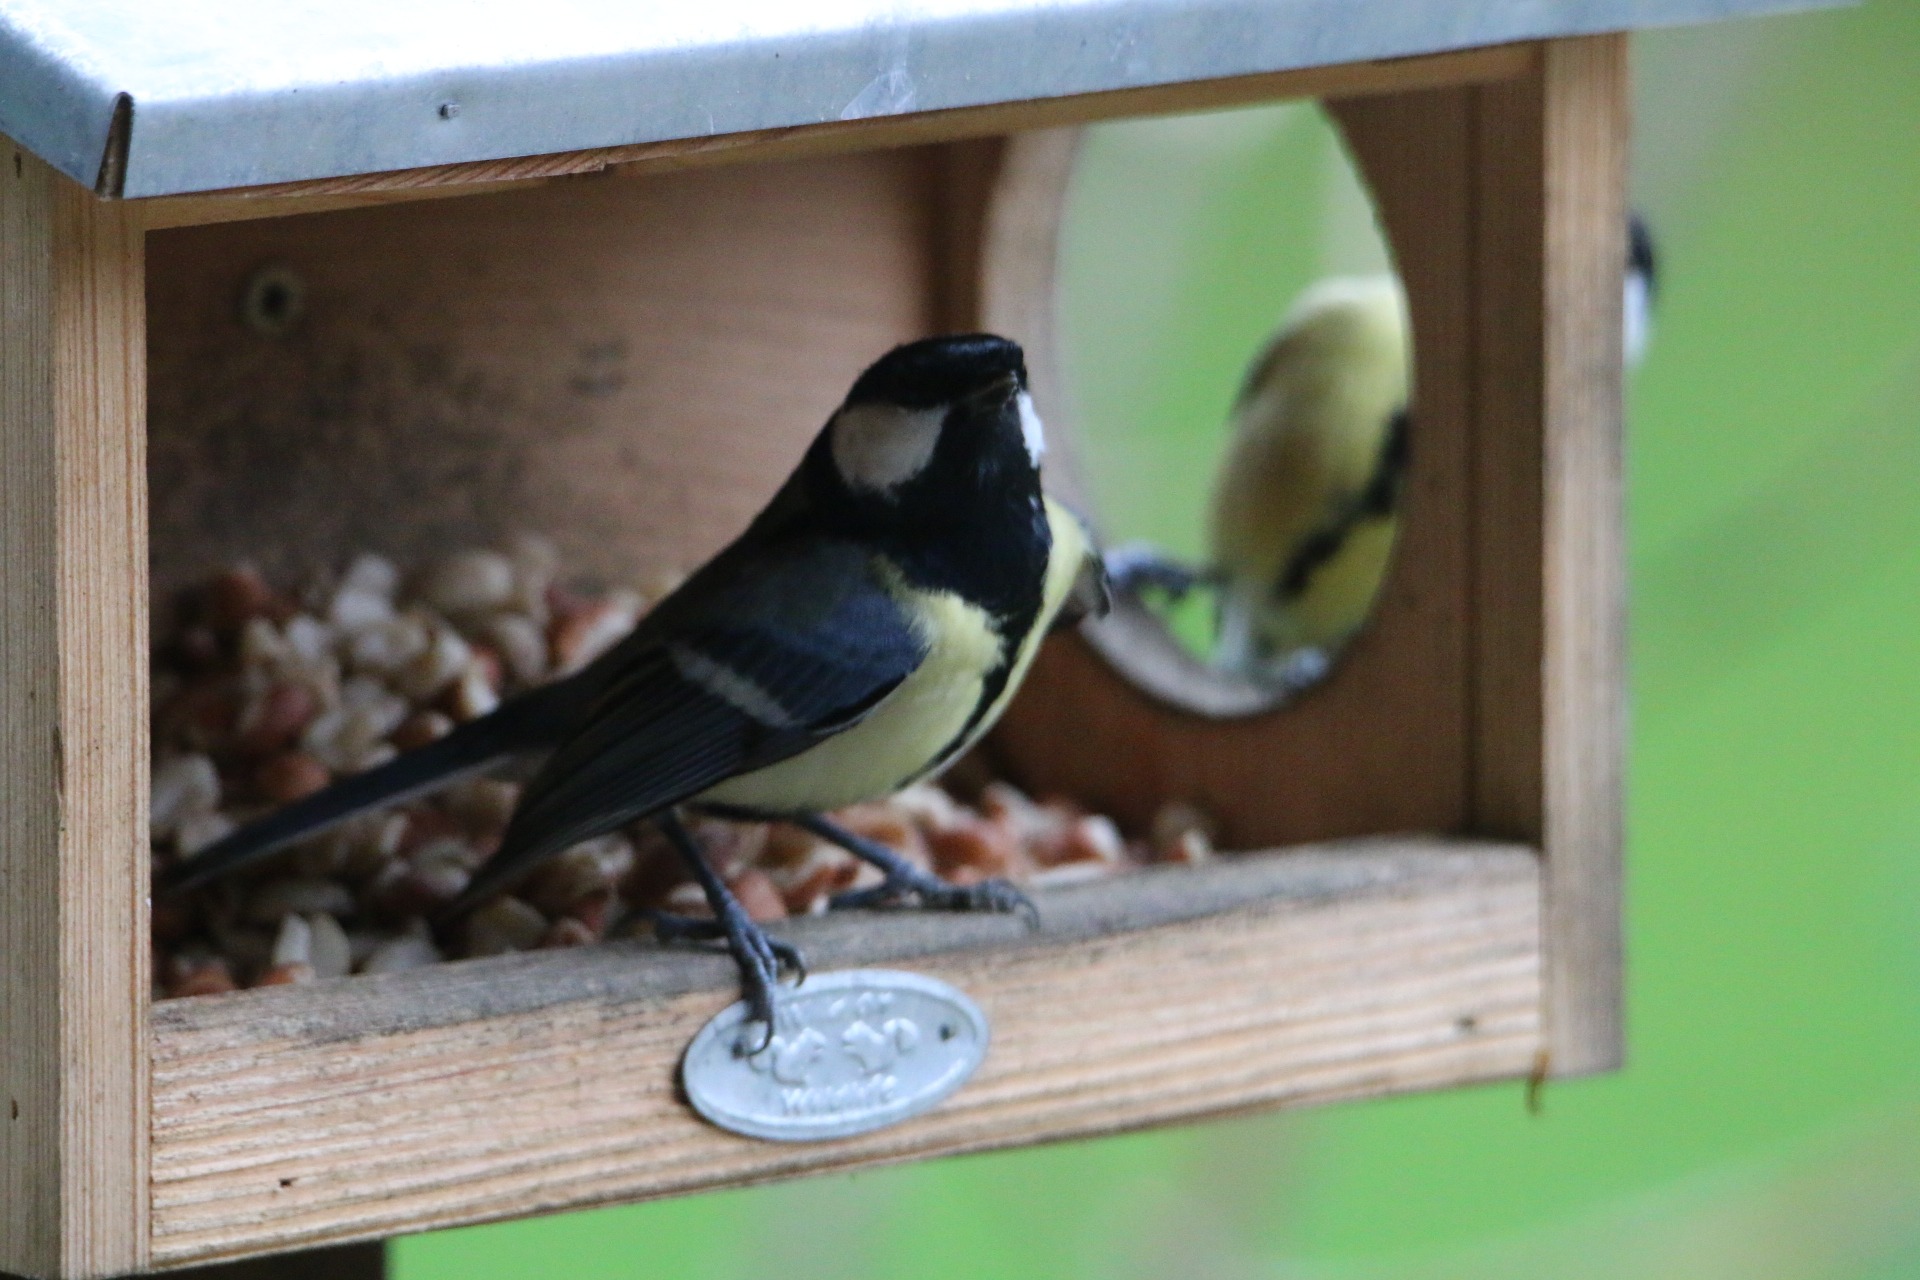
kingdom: Animalia
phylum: Chordata
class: Aves
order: Passeriformes
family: Paridae
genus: Parus
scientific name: Parus major
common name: Musvit
